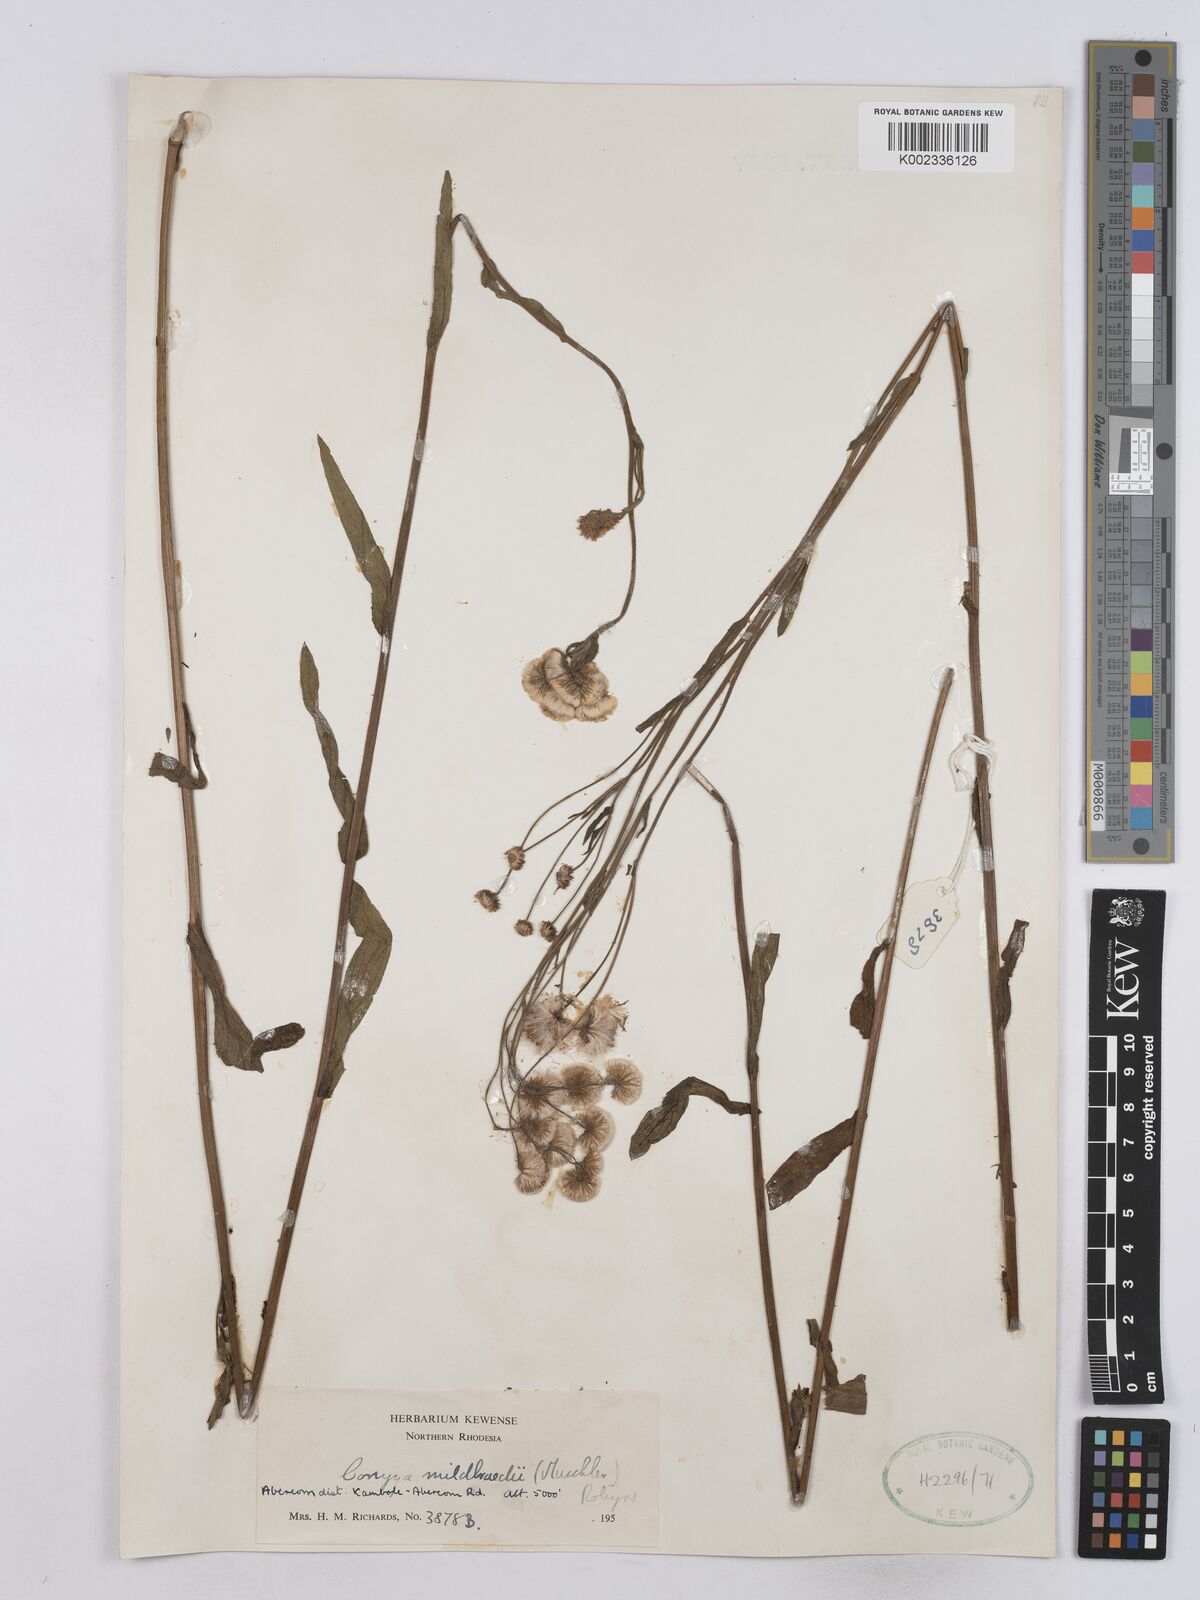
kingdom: Plantae
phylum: Tracheophyta
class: Magnoliopsida
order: Asterales
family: Asteraceae
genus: Conyza
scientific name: Conyza limosa
